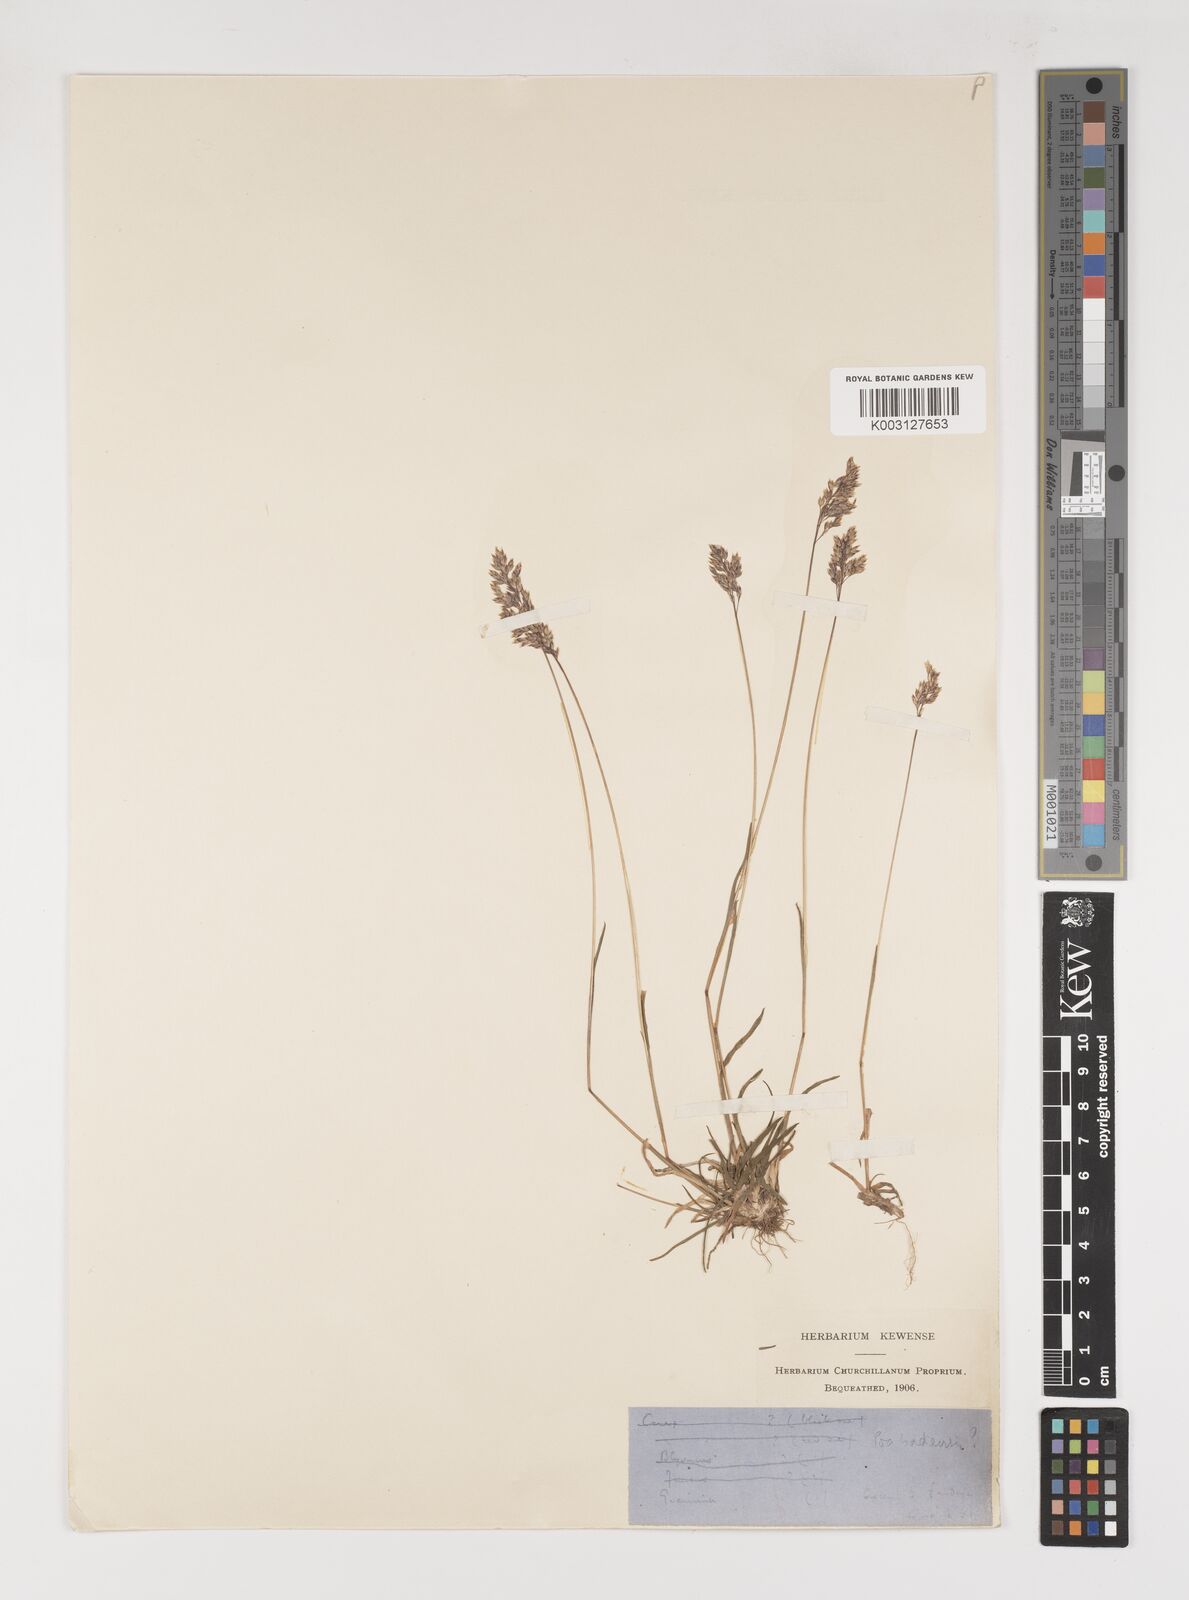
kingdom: Plantae
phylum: Tracheophyta
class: Liliopsida
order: Poales
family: Poaceae
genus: Poa
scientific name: Poa
